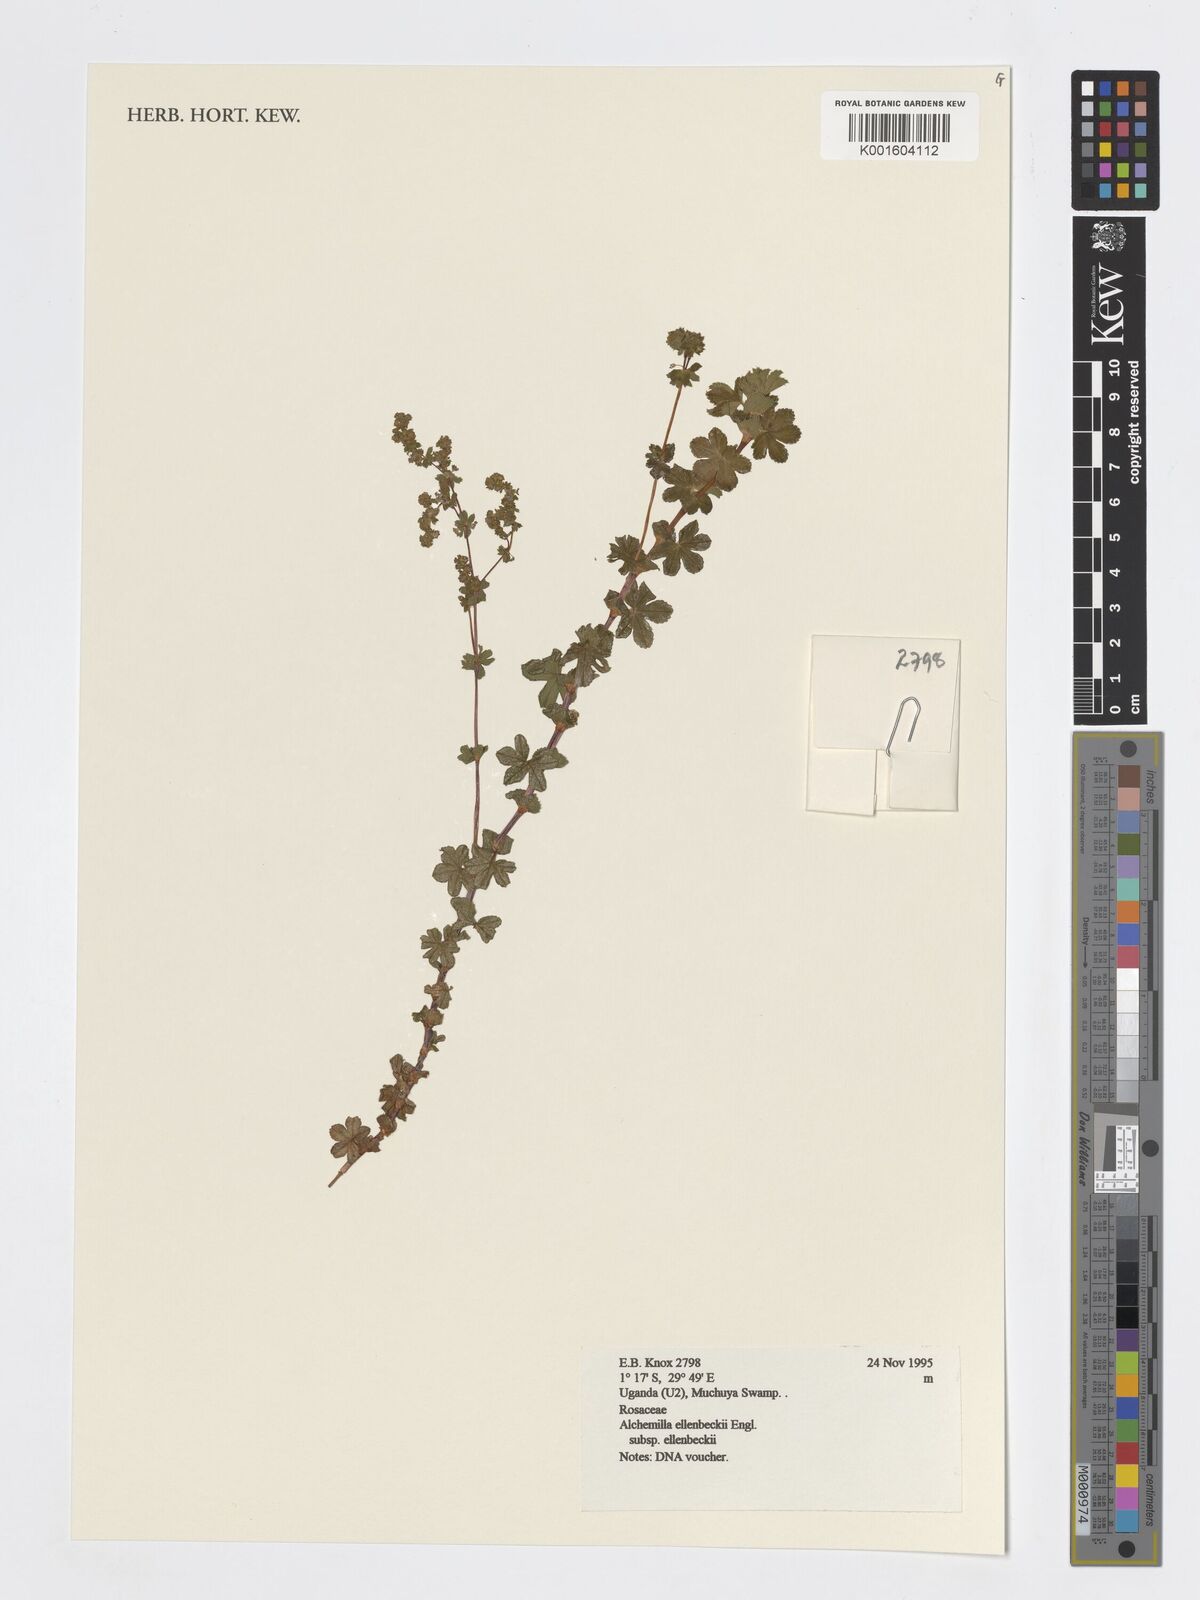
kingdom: Plantae
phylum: Tracheophyta
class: Magnoliopsida
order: Rosales
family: Rosaceae
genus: Alchemilla
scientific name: Alchemilla ellenbeckii
